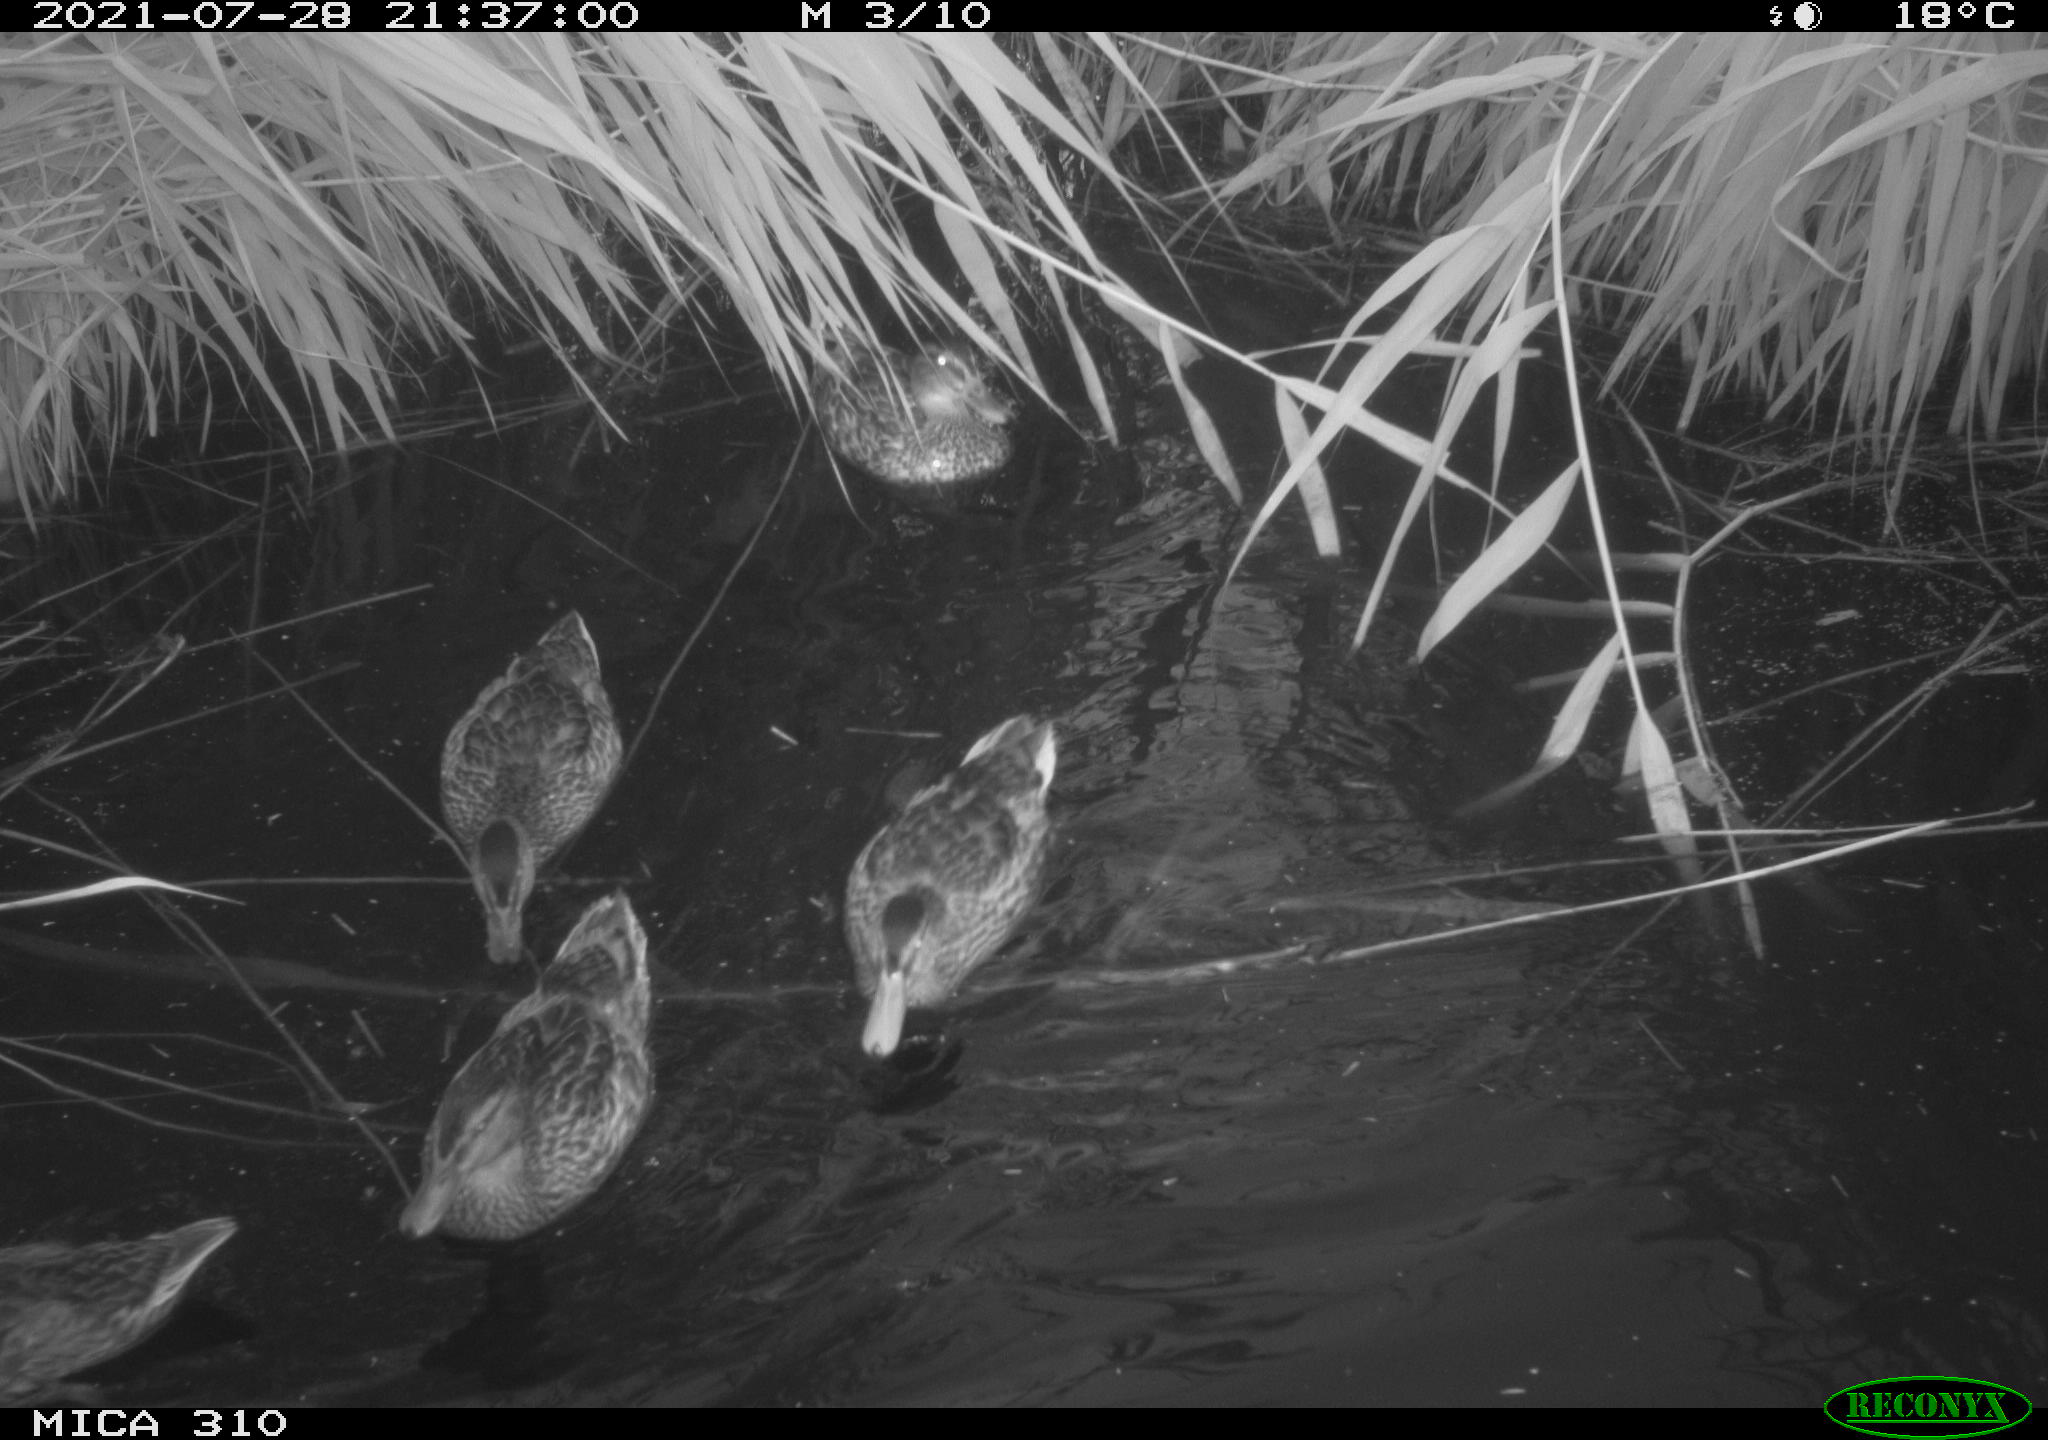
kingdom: Animalia
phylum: Chordata
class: Aves
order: Anseriformes
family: Anatidae
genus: Anas
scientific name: Anas platyrhynchos
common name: Mallard
